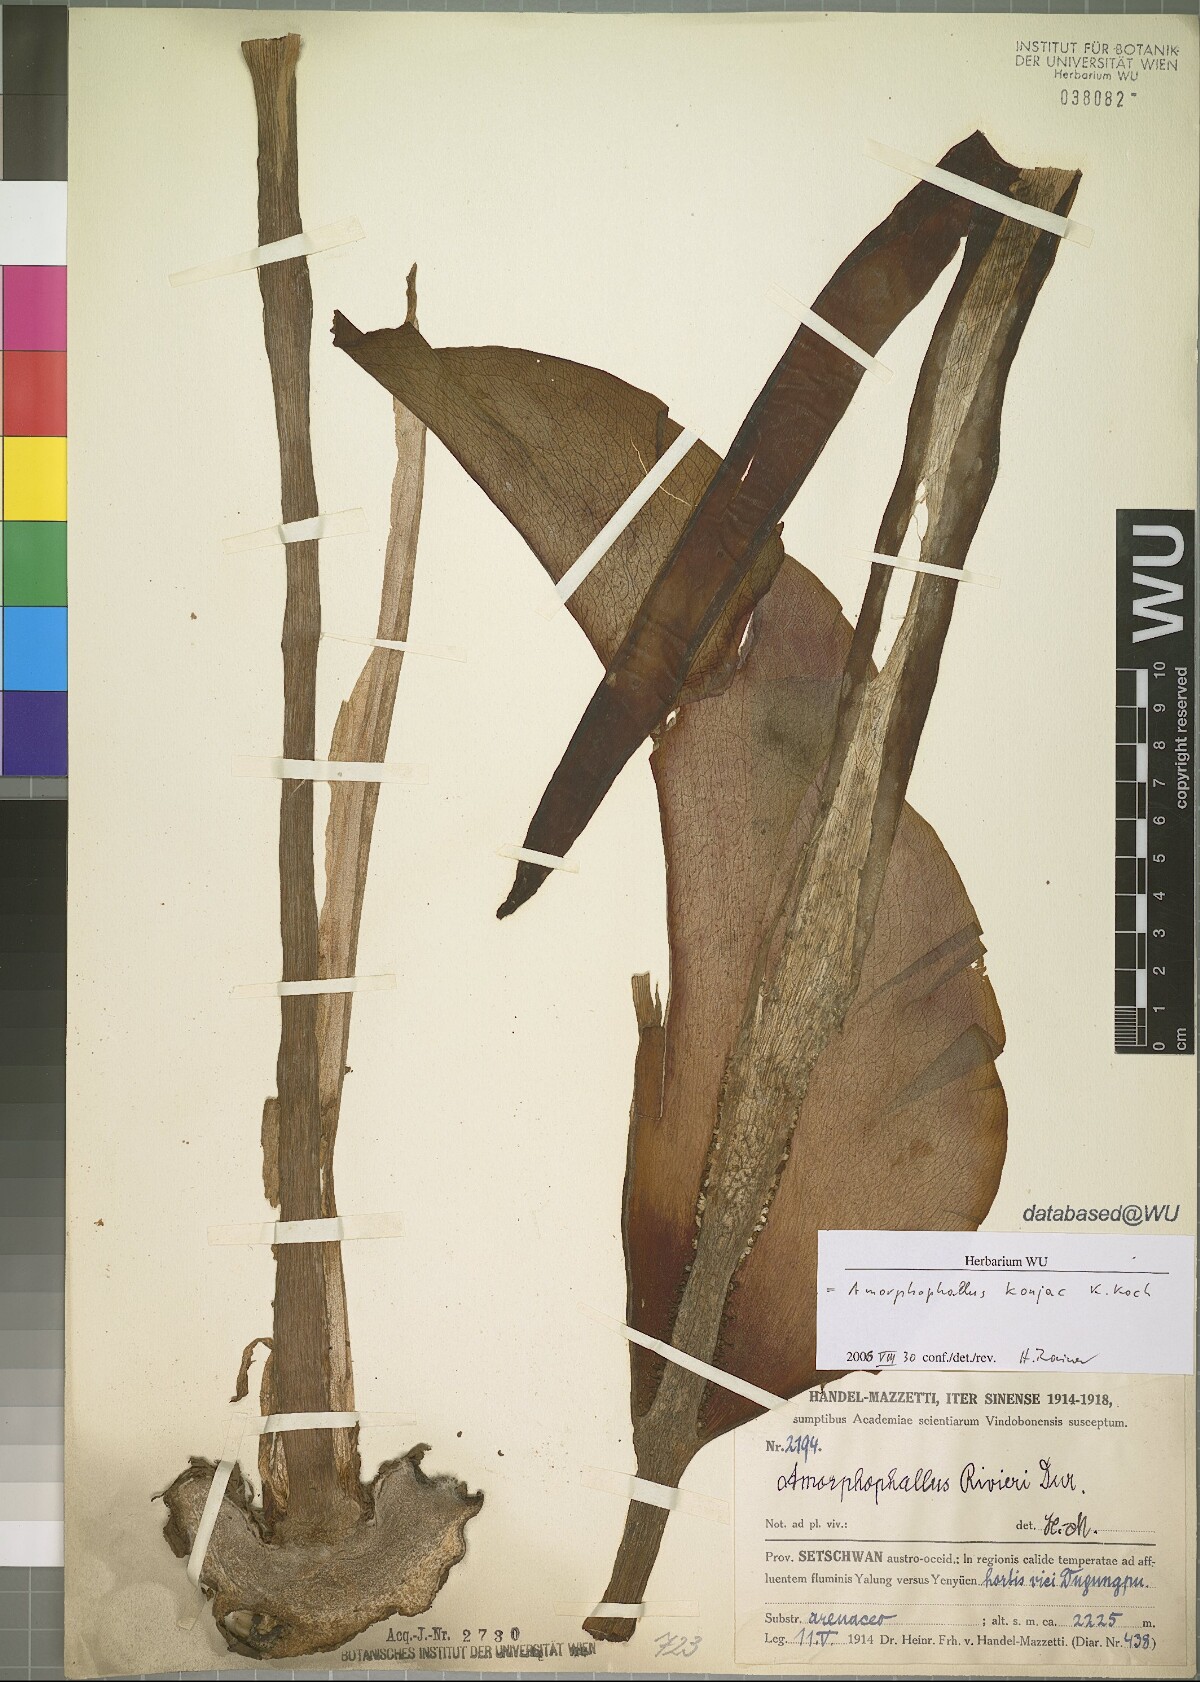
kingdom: Plantae
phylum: Tracheophyta
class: Liliopsida
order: Alismatales
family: Araceae
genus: Amorphophallus
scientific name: Amorphophallus konjac
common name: Umbrella arum
